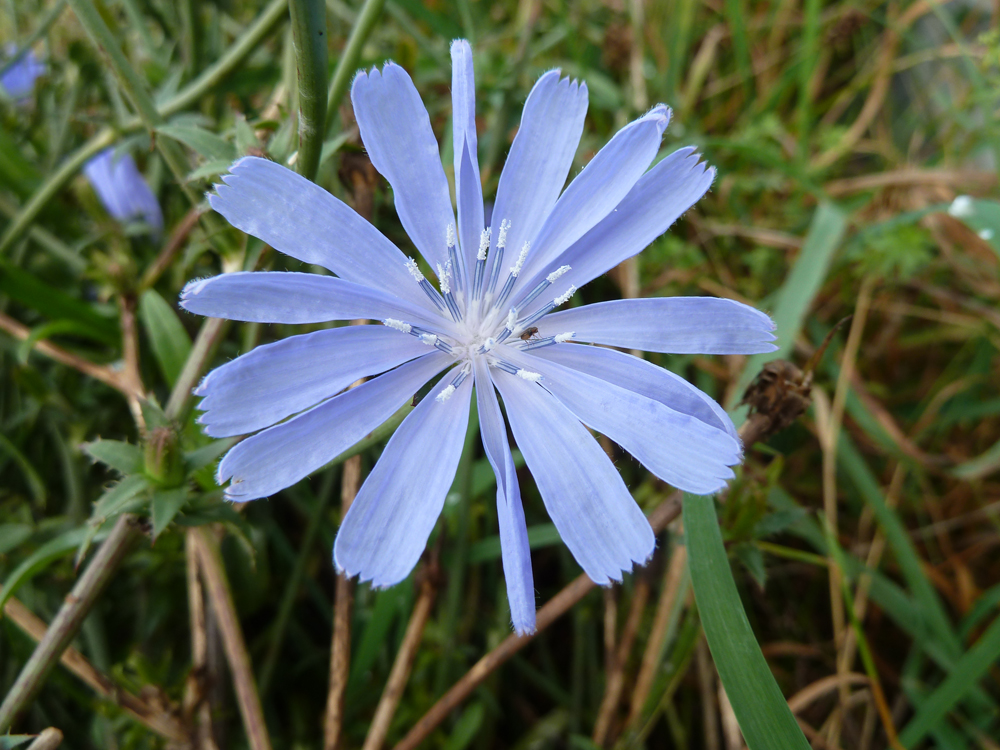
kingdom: Plantae
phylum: Tracheophyta
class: Magnoliopsida
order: Asterales
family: Asteraceae
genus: Cichorium
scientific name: Cichorium intybus
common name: Chicory
